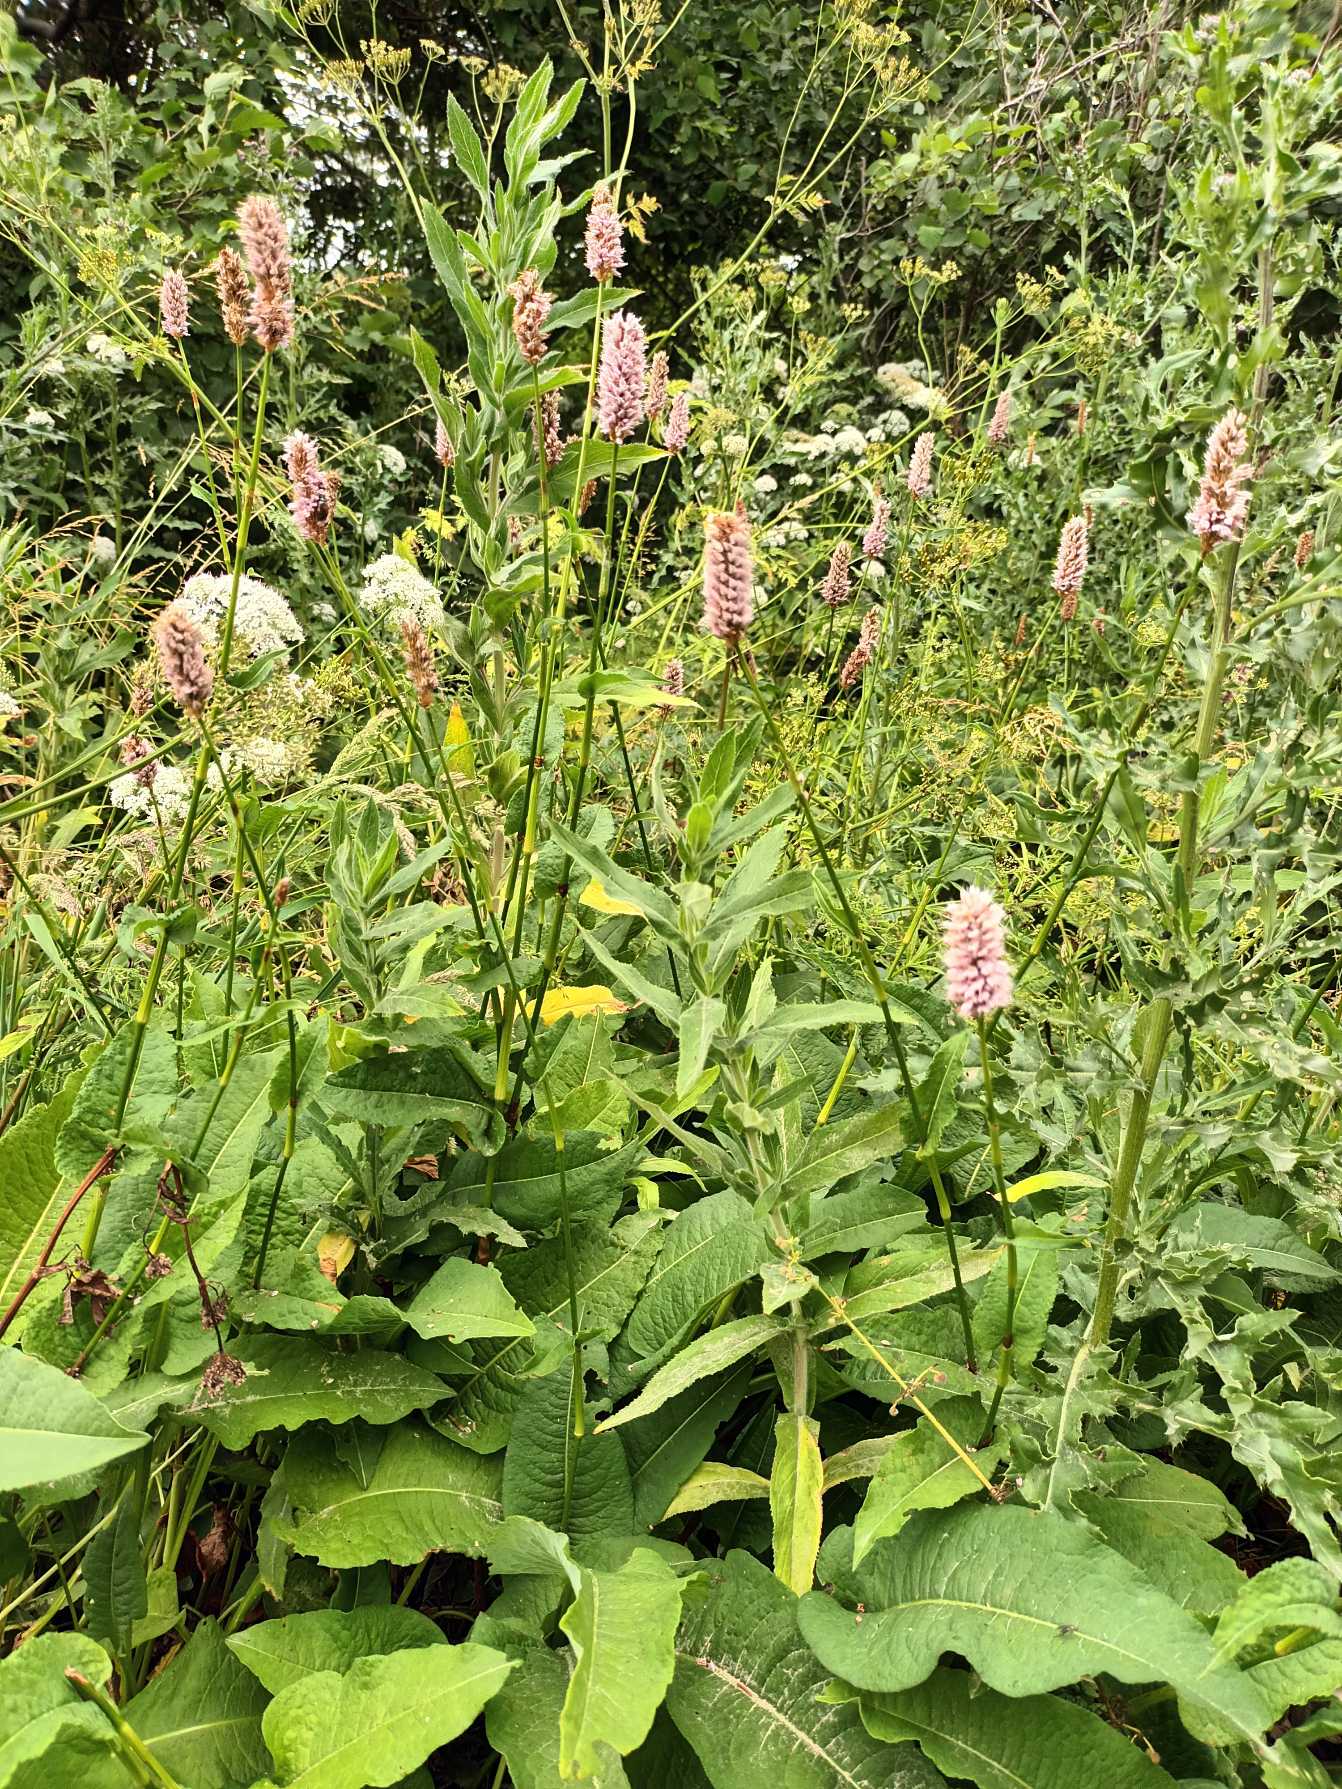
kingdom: Plantae
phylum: Tracheophyta
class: Magnoliopsida
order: Caryophyllales
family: Polygonaceae
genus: Bistorta
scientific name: Bistorta officinalis
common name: Slangeurt
